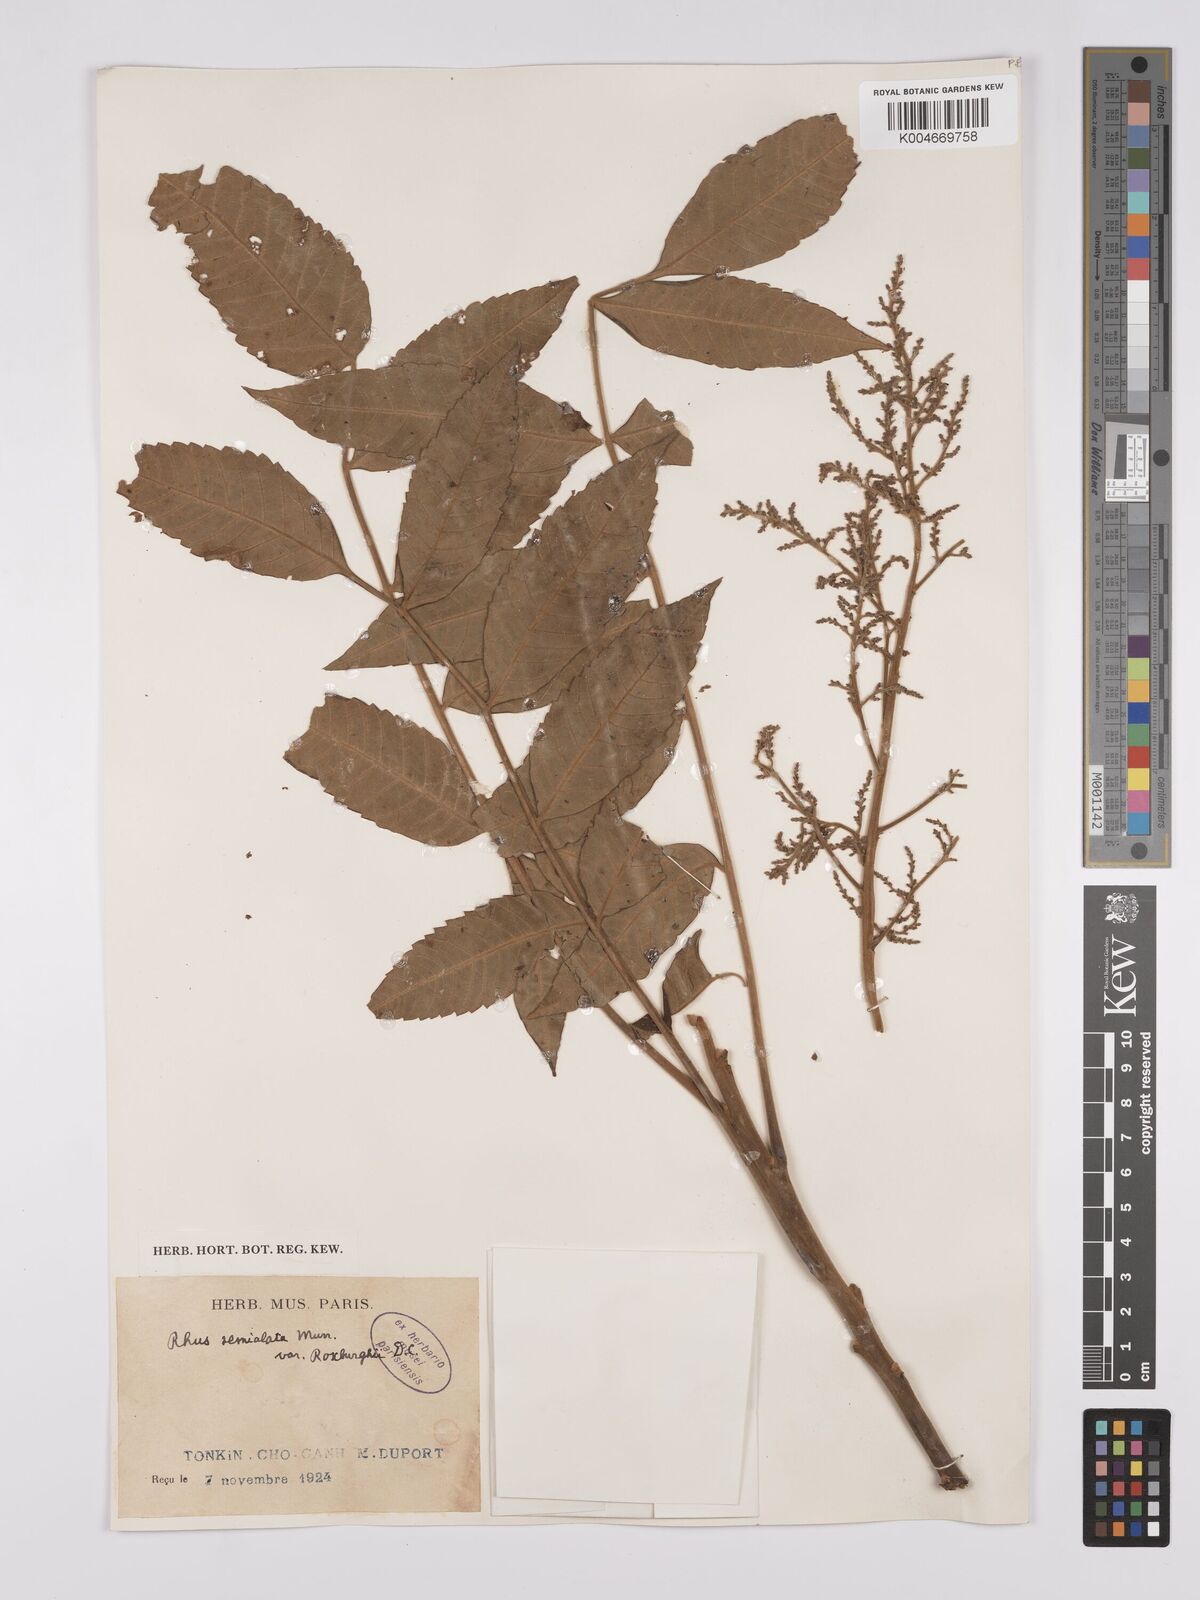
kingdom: Plantae
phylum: Tracheophyta
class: Magnoliopsida
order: Sapindales
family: Anacardiaceae
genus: Rhus
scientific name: Rhus chinensis
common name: Chinese gall
